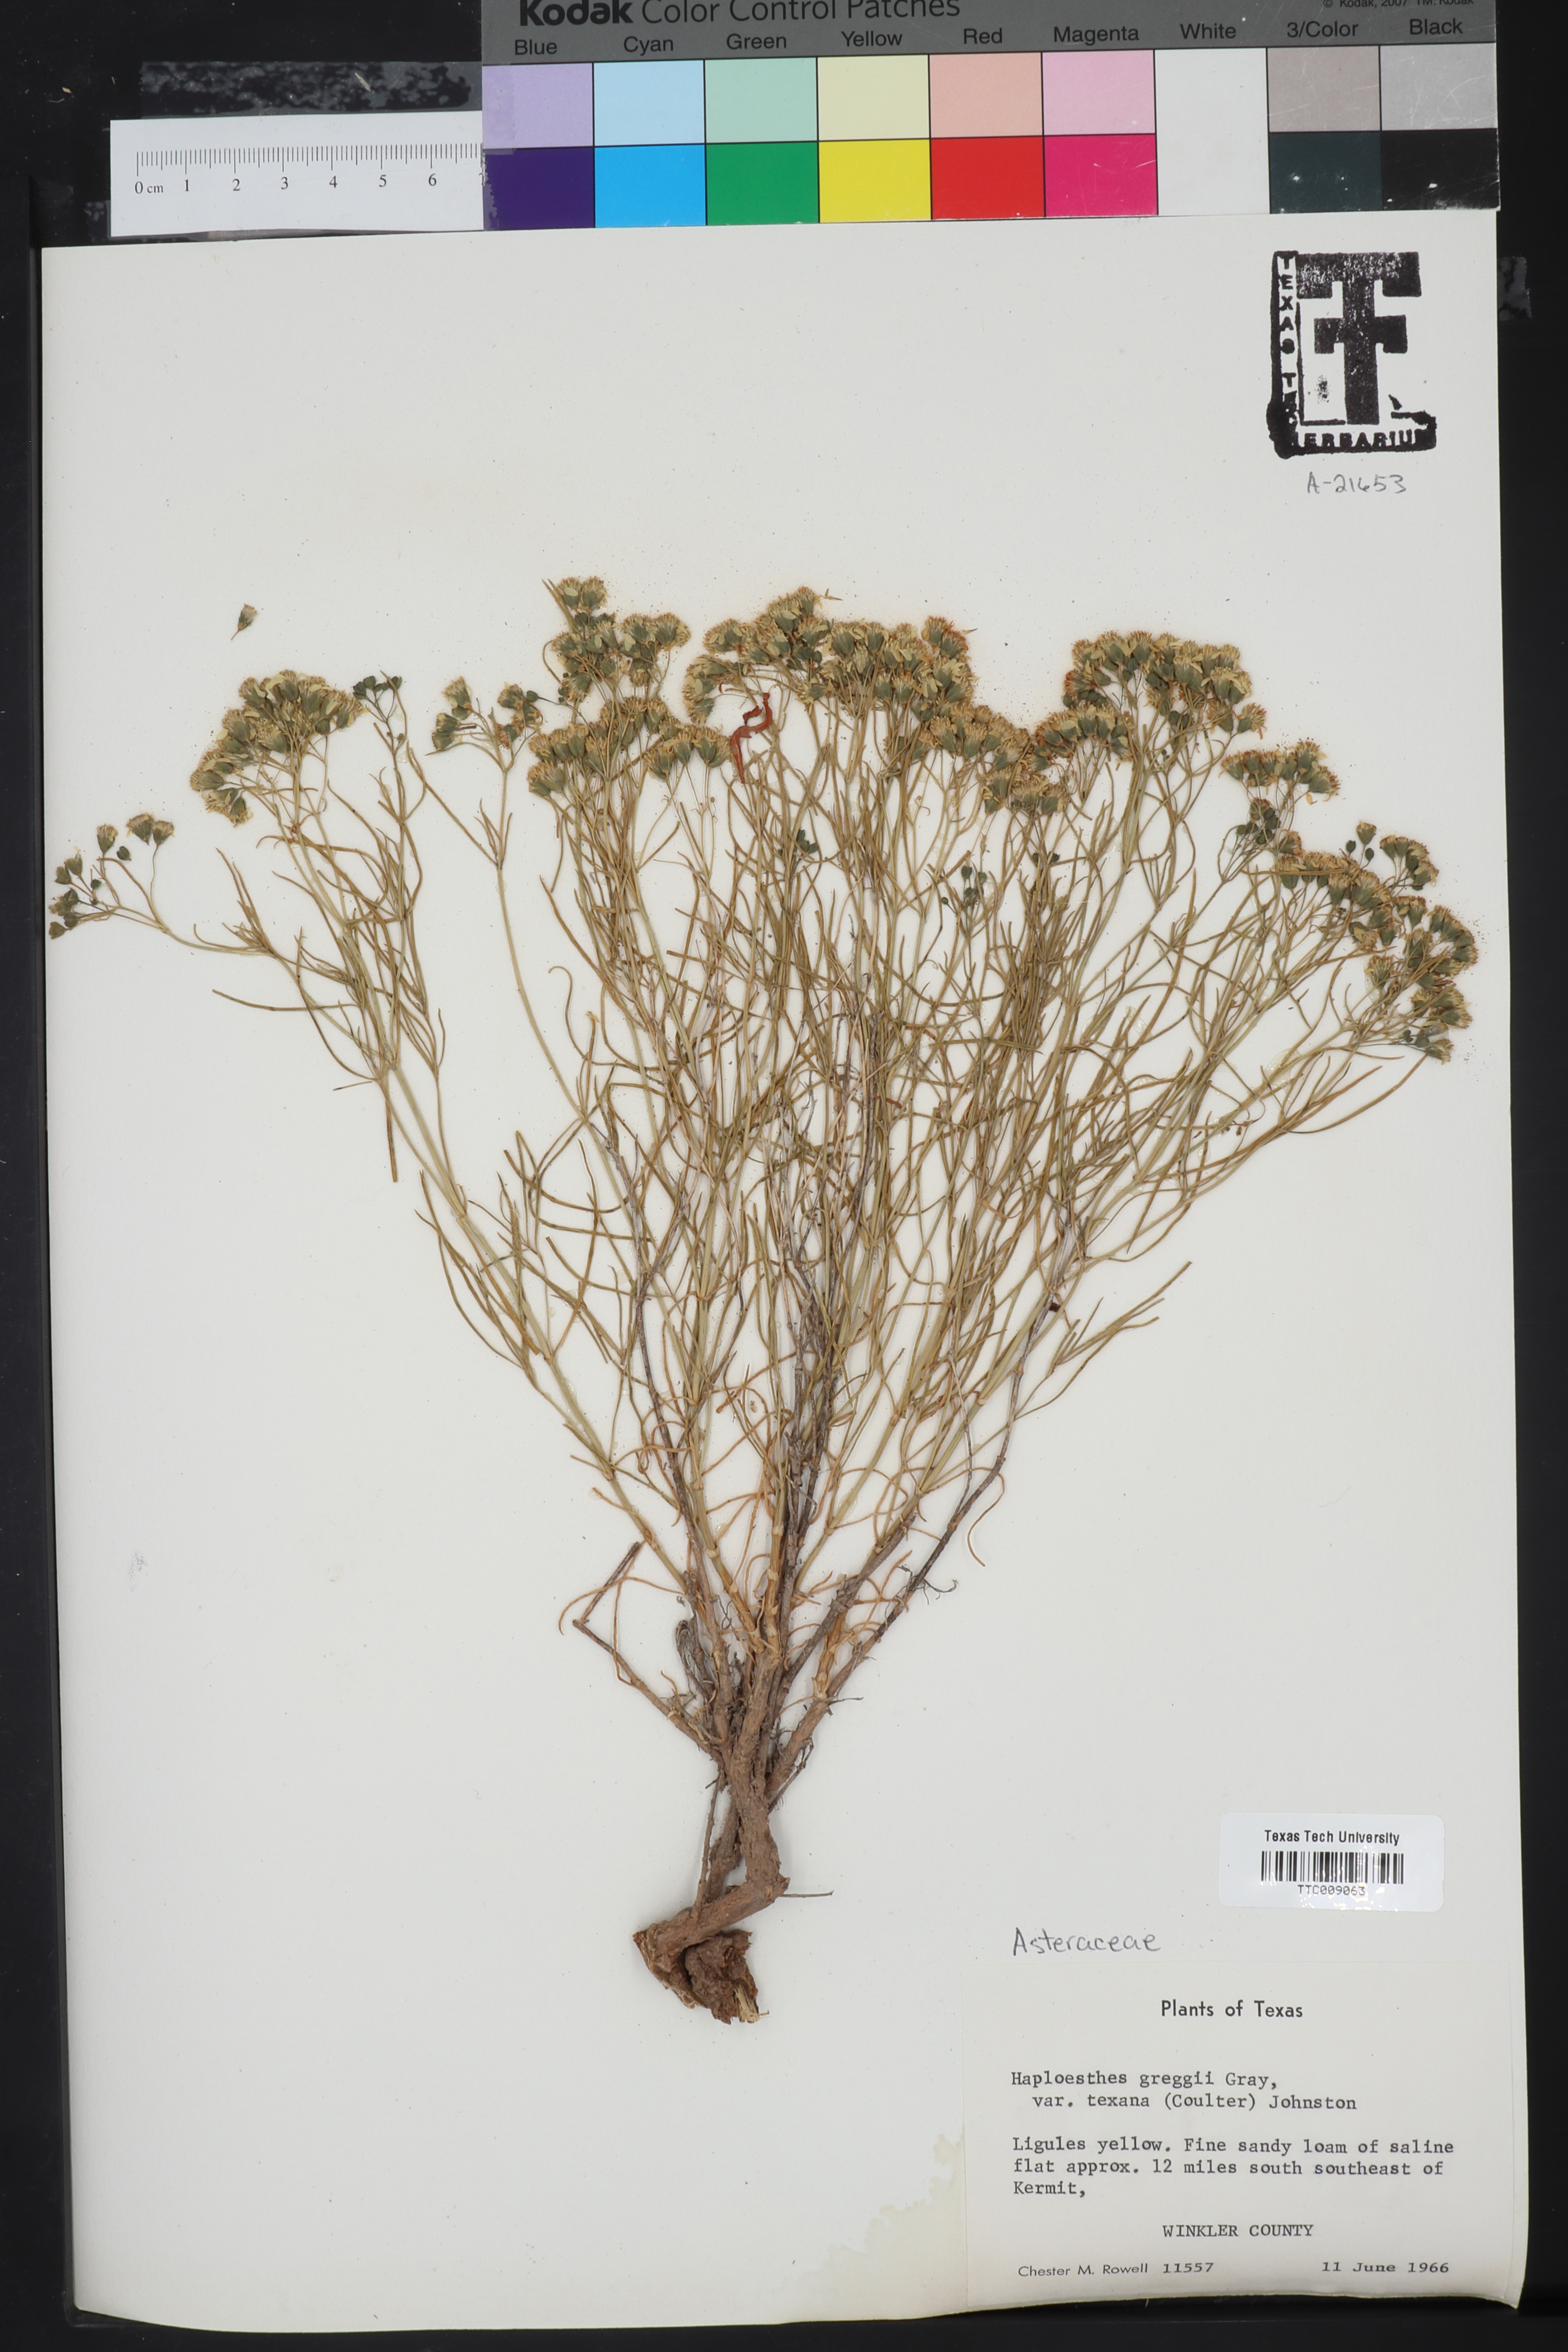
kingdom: Plantae
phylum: Tracheophyta
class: Magnoliopsida
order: Asterales
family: Asteraceae
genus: Haploesthes
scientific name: Haploesthes greggii
